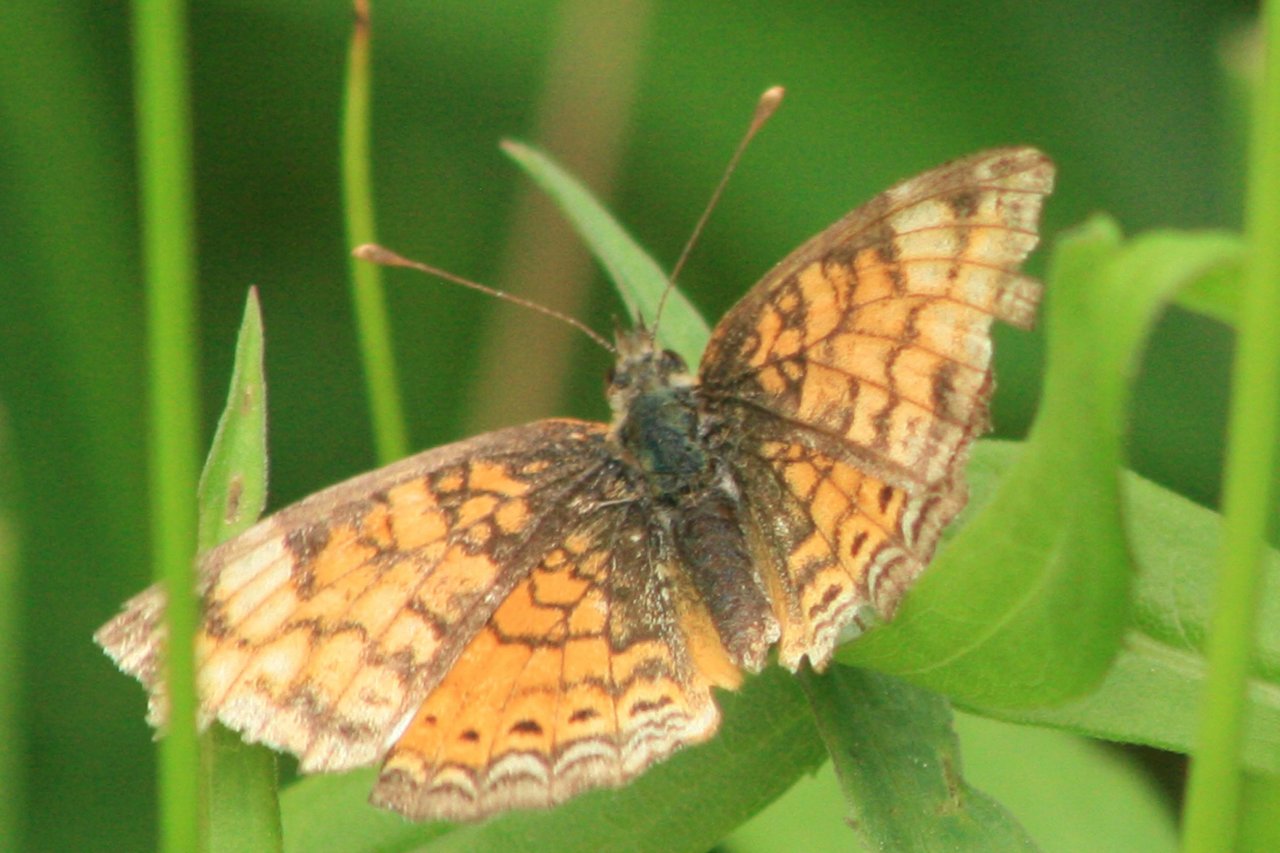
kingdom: Animalia
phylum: Arthropoda
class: Insecta
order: Lepidoptera
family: Nymphalidae
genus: Phyciodes
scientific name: Phyciodes
